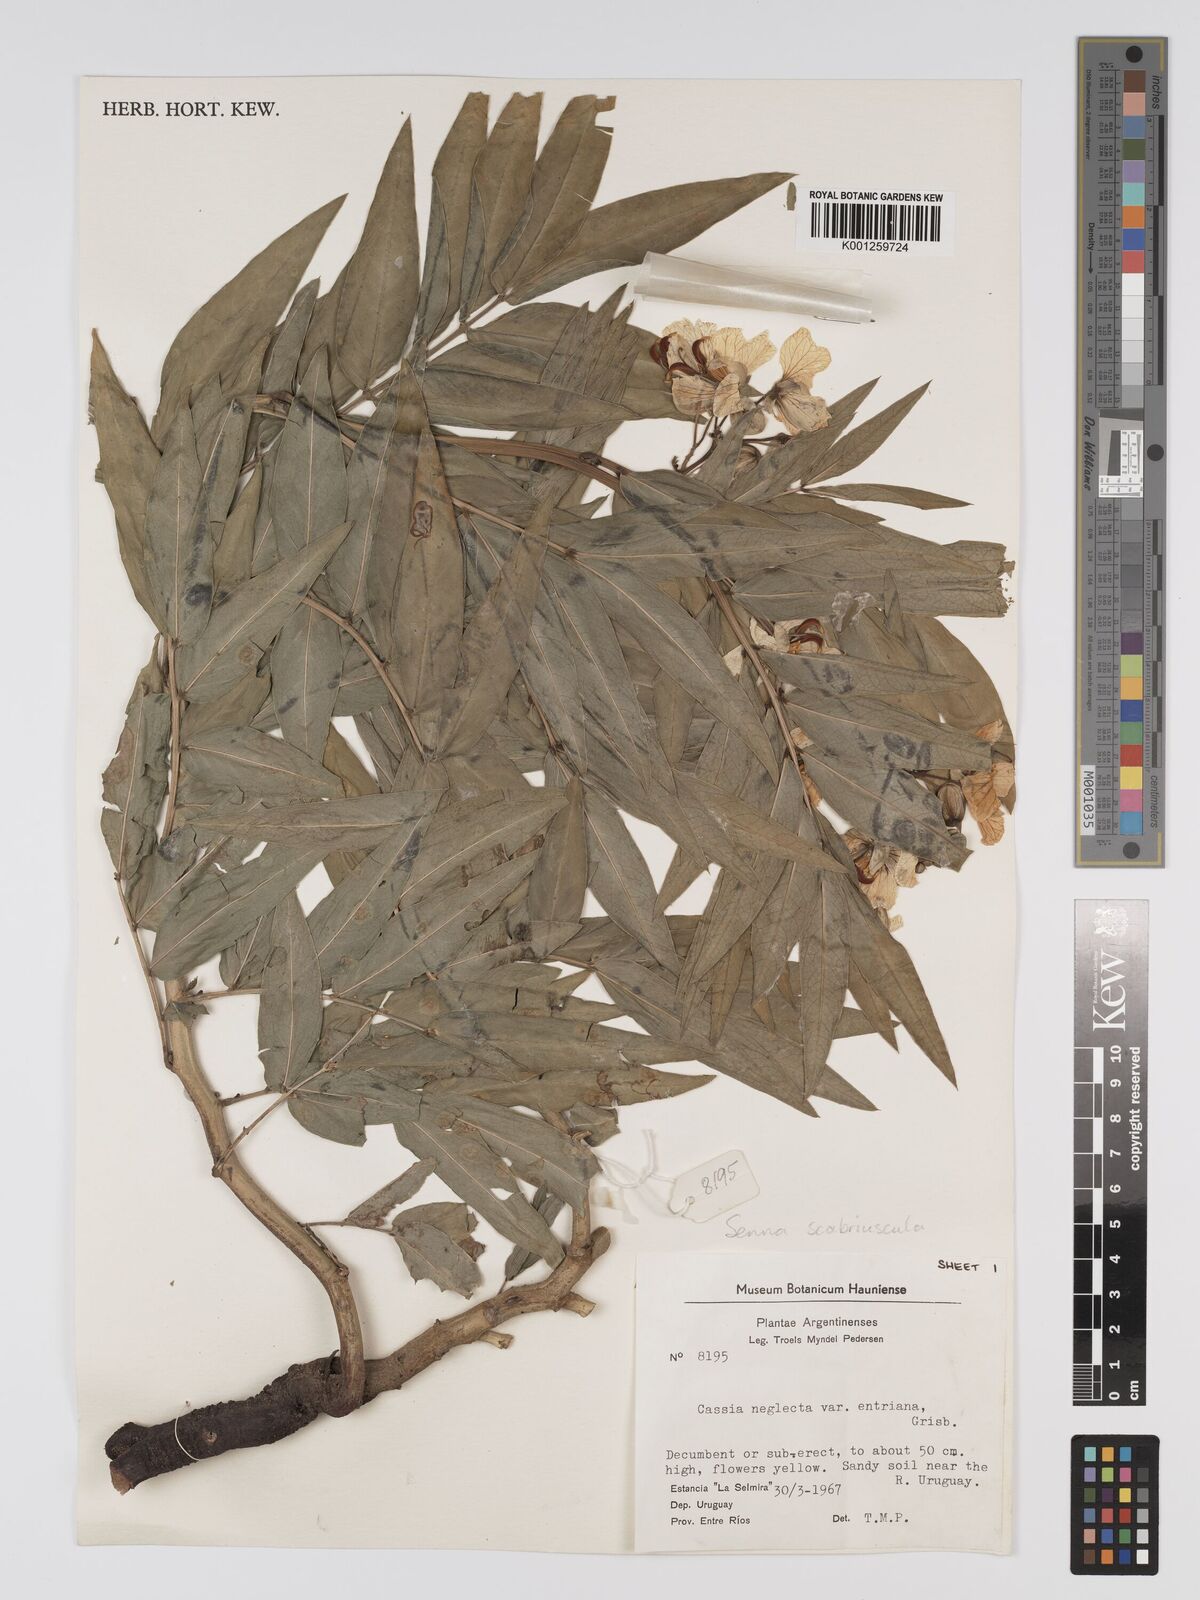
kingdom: Plantae
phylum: Tracheophyta
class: Magnoliopsida
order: Fabales
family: Fabaceae
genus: Senna
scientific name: Senna
